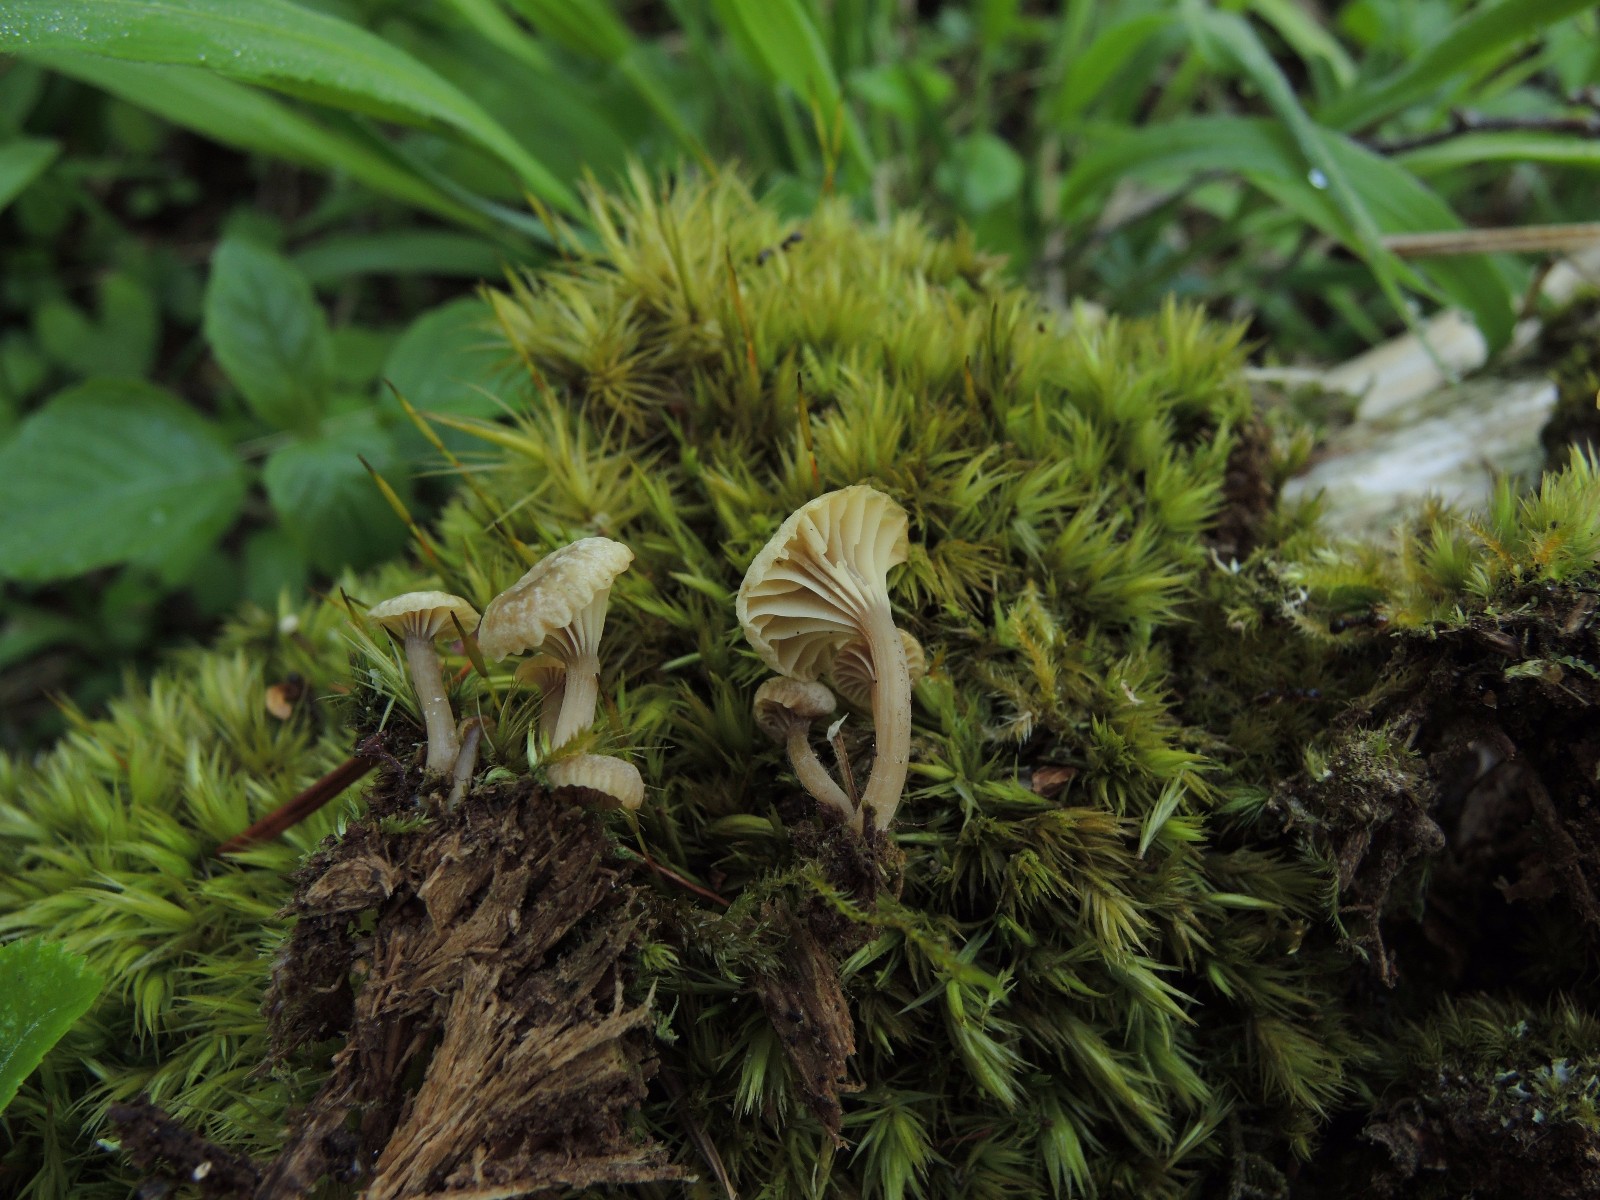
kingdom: Fungi
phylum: Basidiomycota
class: Agaricomycetes
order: Agaricales
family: Hygrophoraceae
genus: Lichenomphalia
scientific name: Lichenomphalia umbellifera
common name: tørve-lavhat
